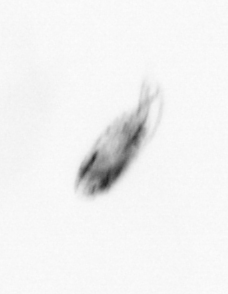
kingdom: Animalia
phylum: Arthropoda
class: Maxillopoda
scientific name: Maxillopoda
